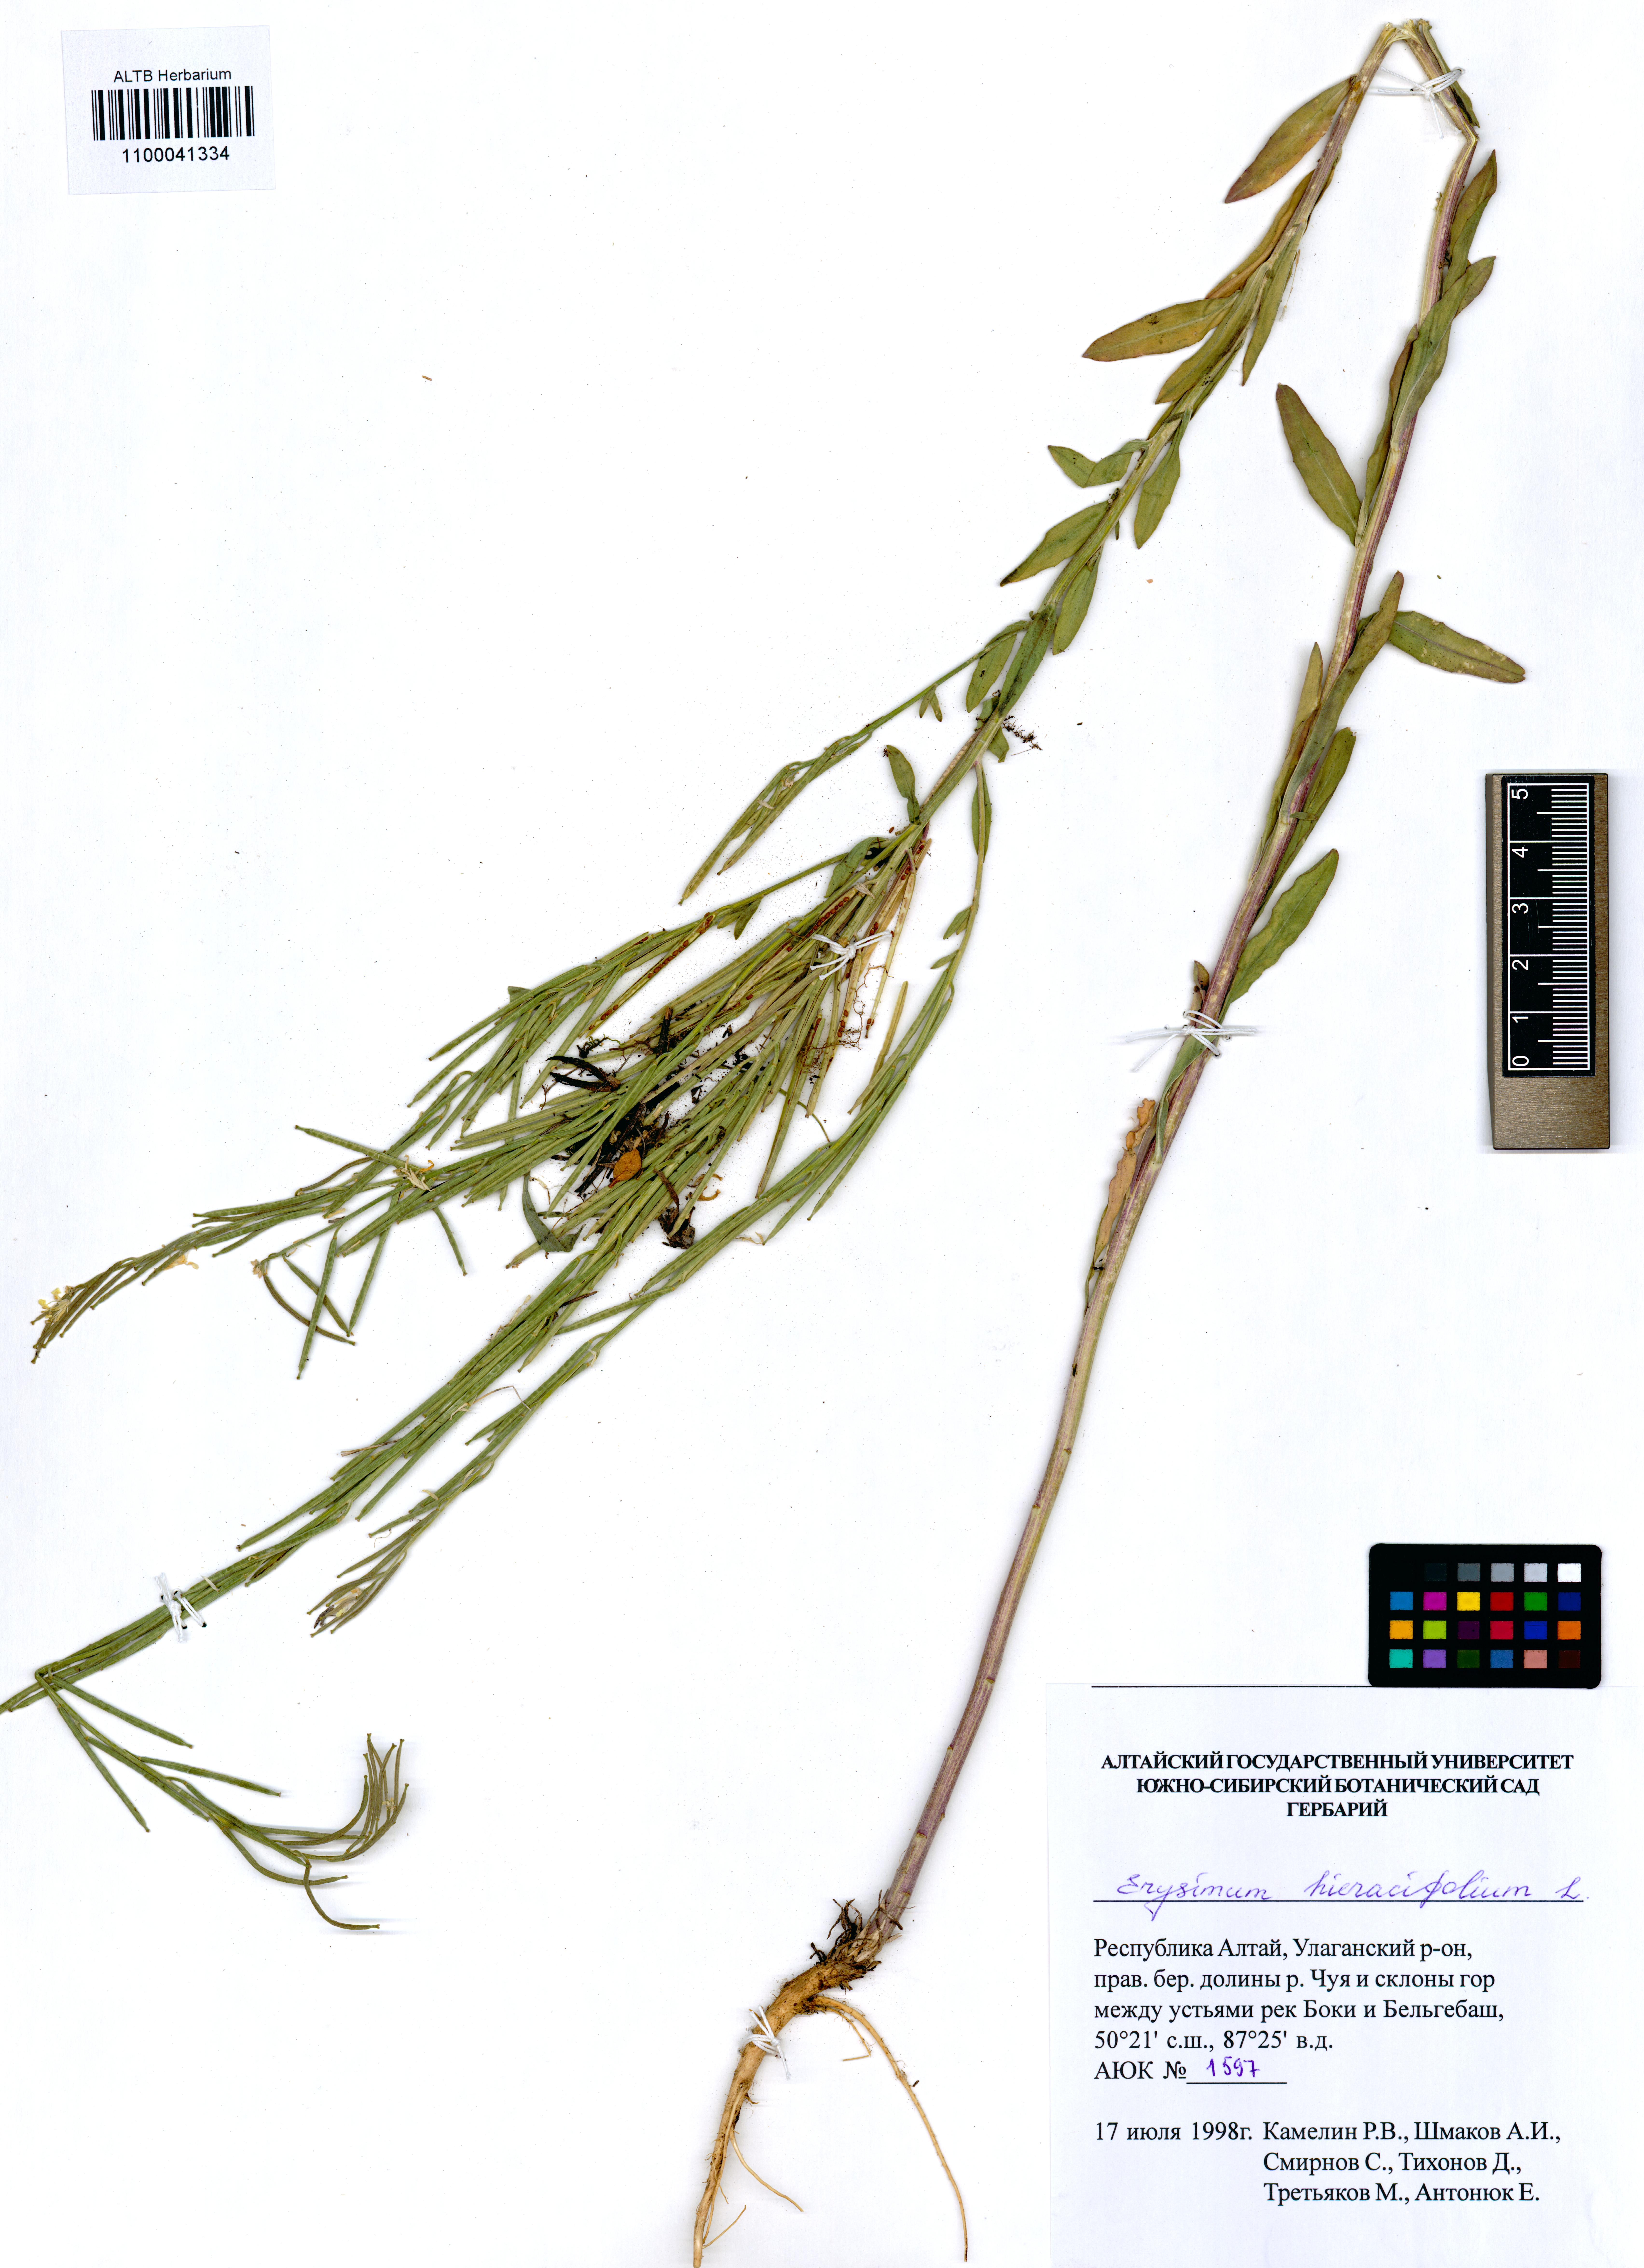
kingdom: Plantae
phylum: Tracheophyta
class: Magnoliopsida
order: Brassicales
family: Brassicaceae
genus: Erysimum
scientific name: Erysimum hieraciifolium
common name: European wallflower
